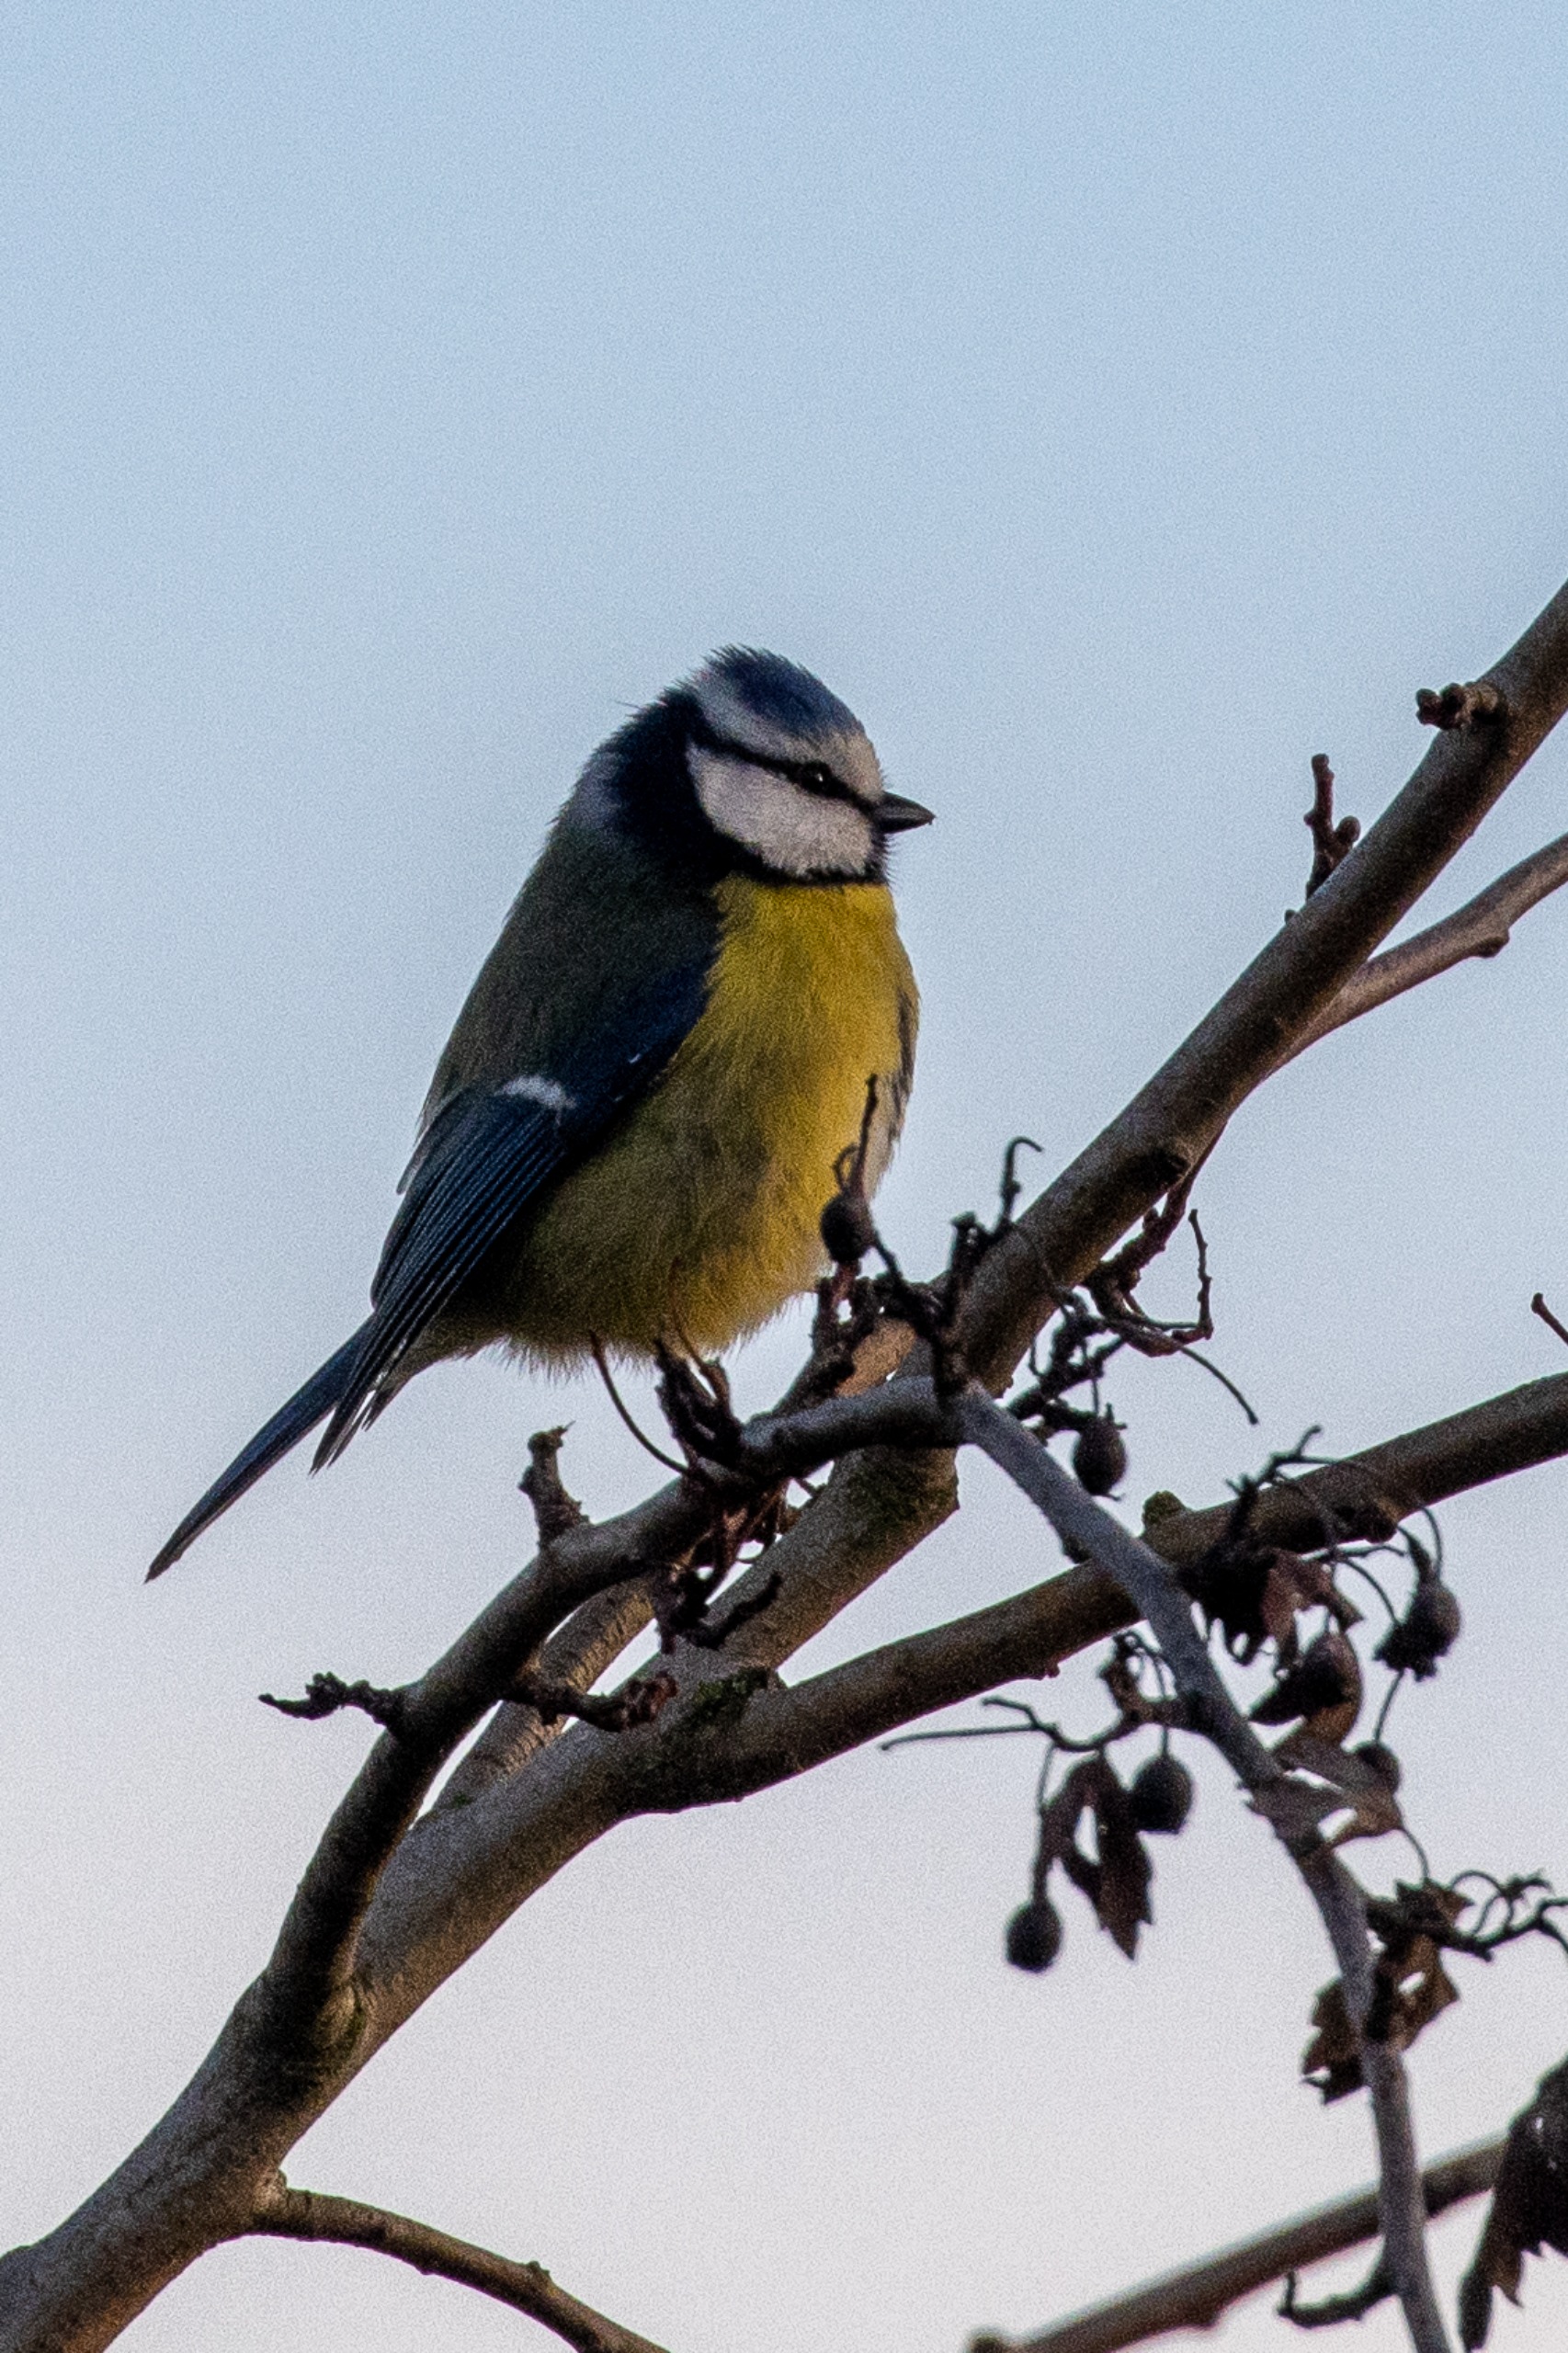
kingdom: Animalia
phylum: Chordata
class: Aves
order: Passeriformes
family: Paridae
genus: Cyanistes
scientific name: Cyanistes caeruleus
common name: Blåmejse
